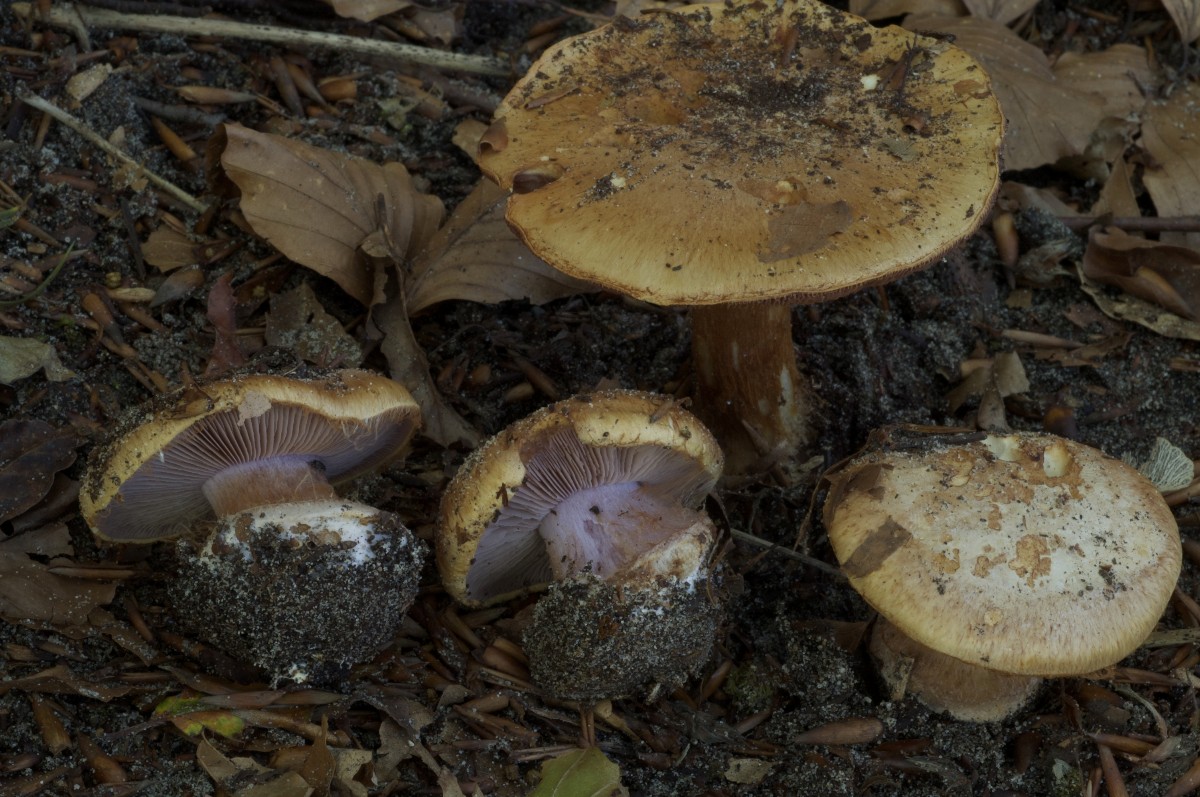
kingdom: Fungi
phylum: Basidiomycota
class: Agaricomycetes
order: Agaricales
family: Cortinariaceae
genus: Calonarius
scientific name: Calonarius vesterholtii
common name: Vesterholts slørhat
